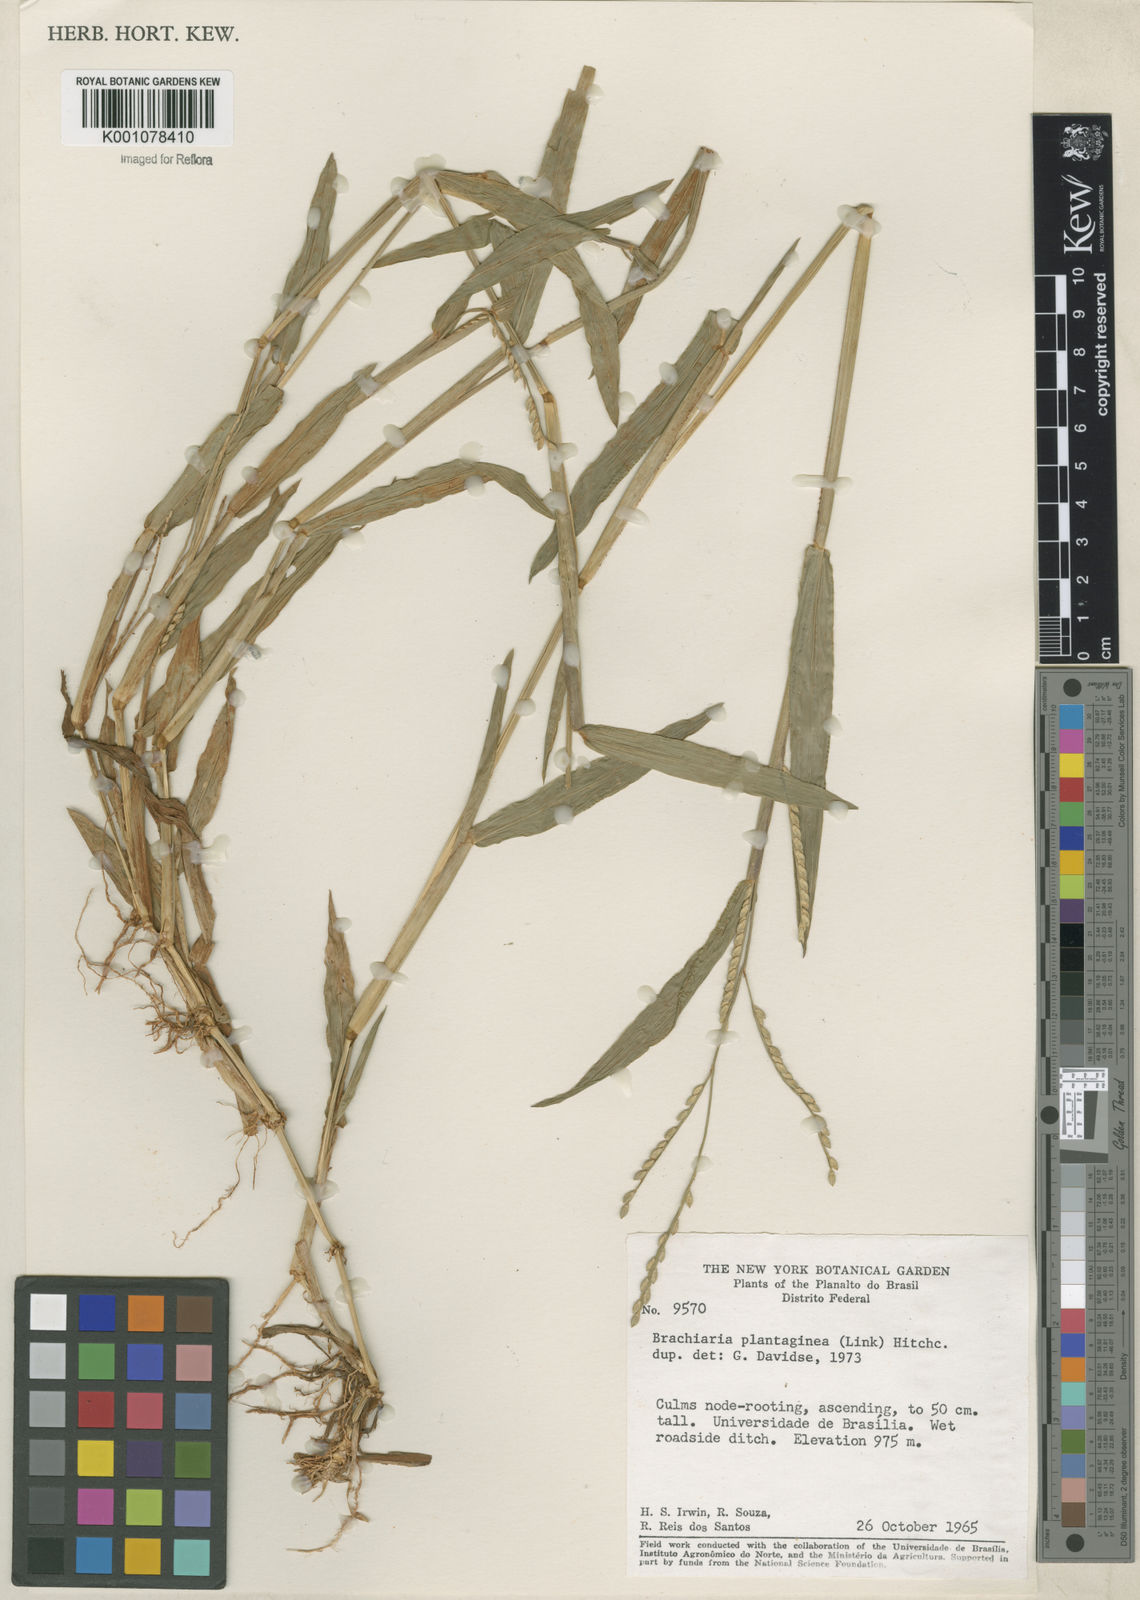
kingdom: Plantae
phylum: Tracheophyta
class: Liliopsida
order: Poales
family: Poaceae
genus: Urochloa
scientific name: Urochloa plantaginea
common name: Plantain signalgrass
